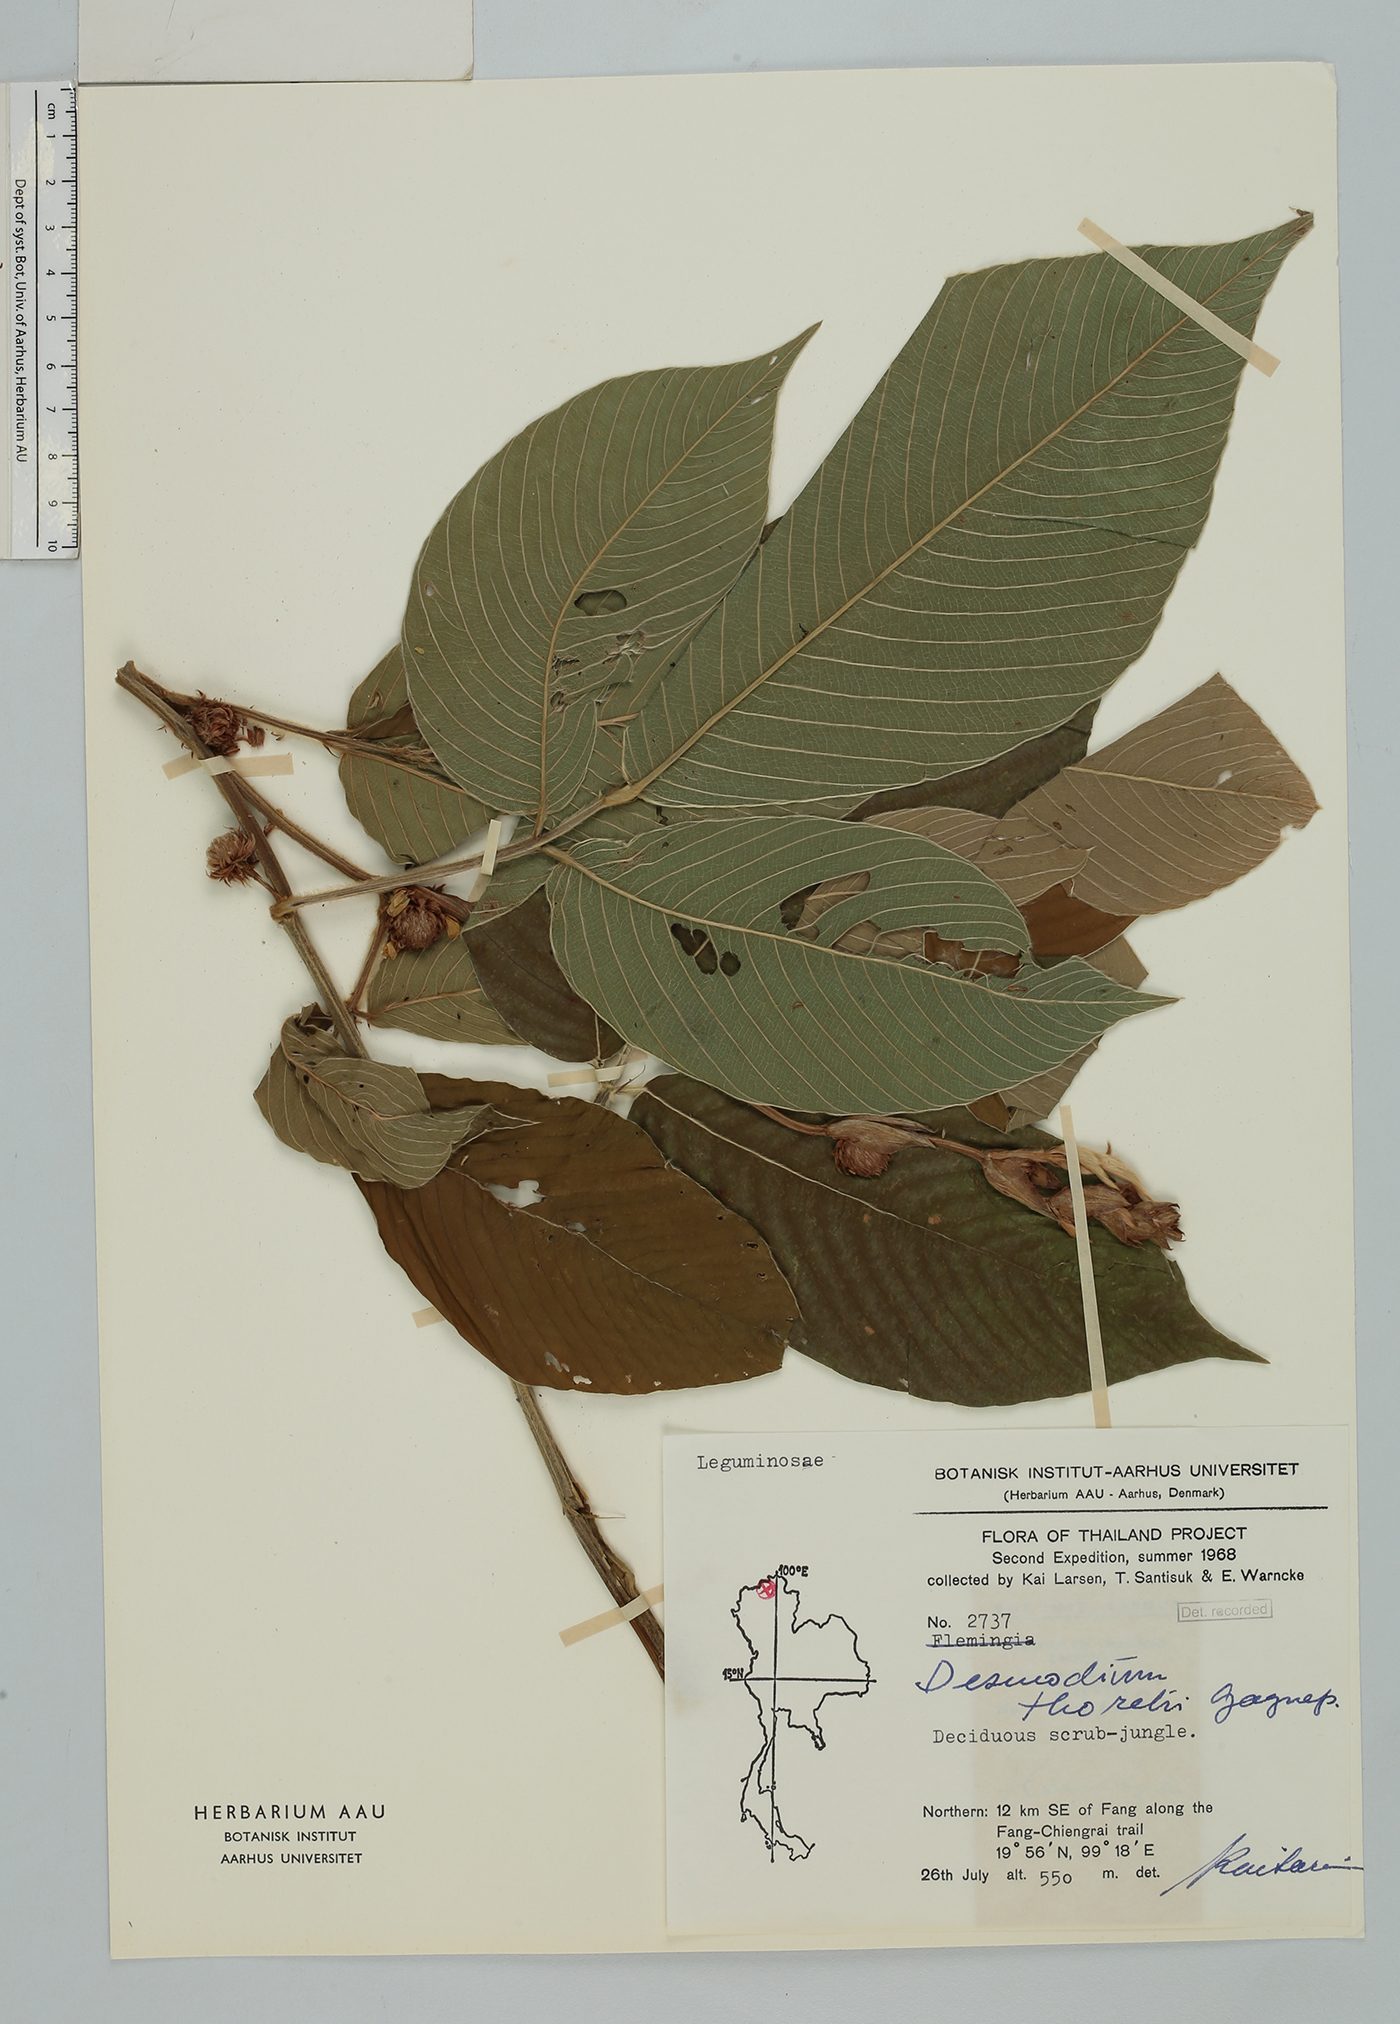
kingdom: Plantae
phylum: Tracheophyta
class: Magnoliopsida
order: Fabales
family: Fabaceae
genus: Dendrolobium
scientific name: Dendrolobium thorelii
